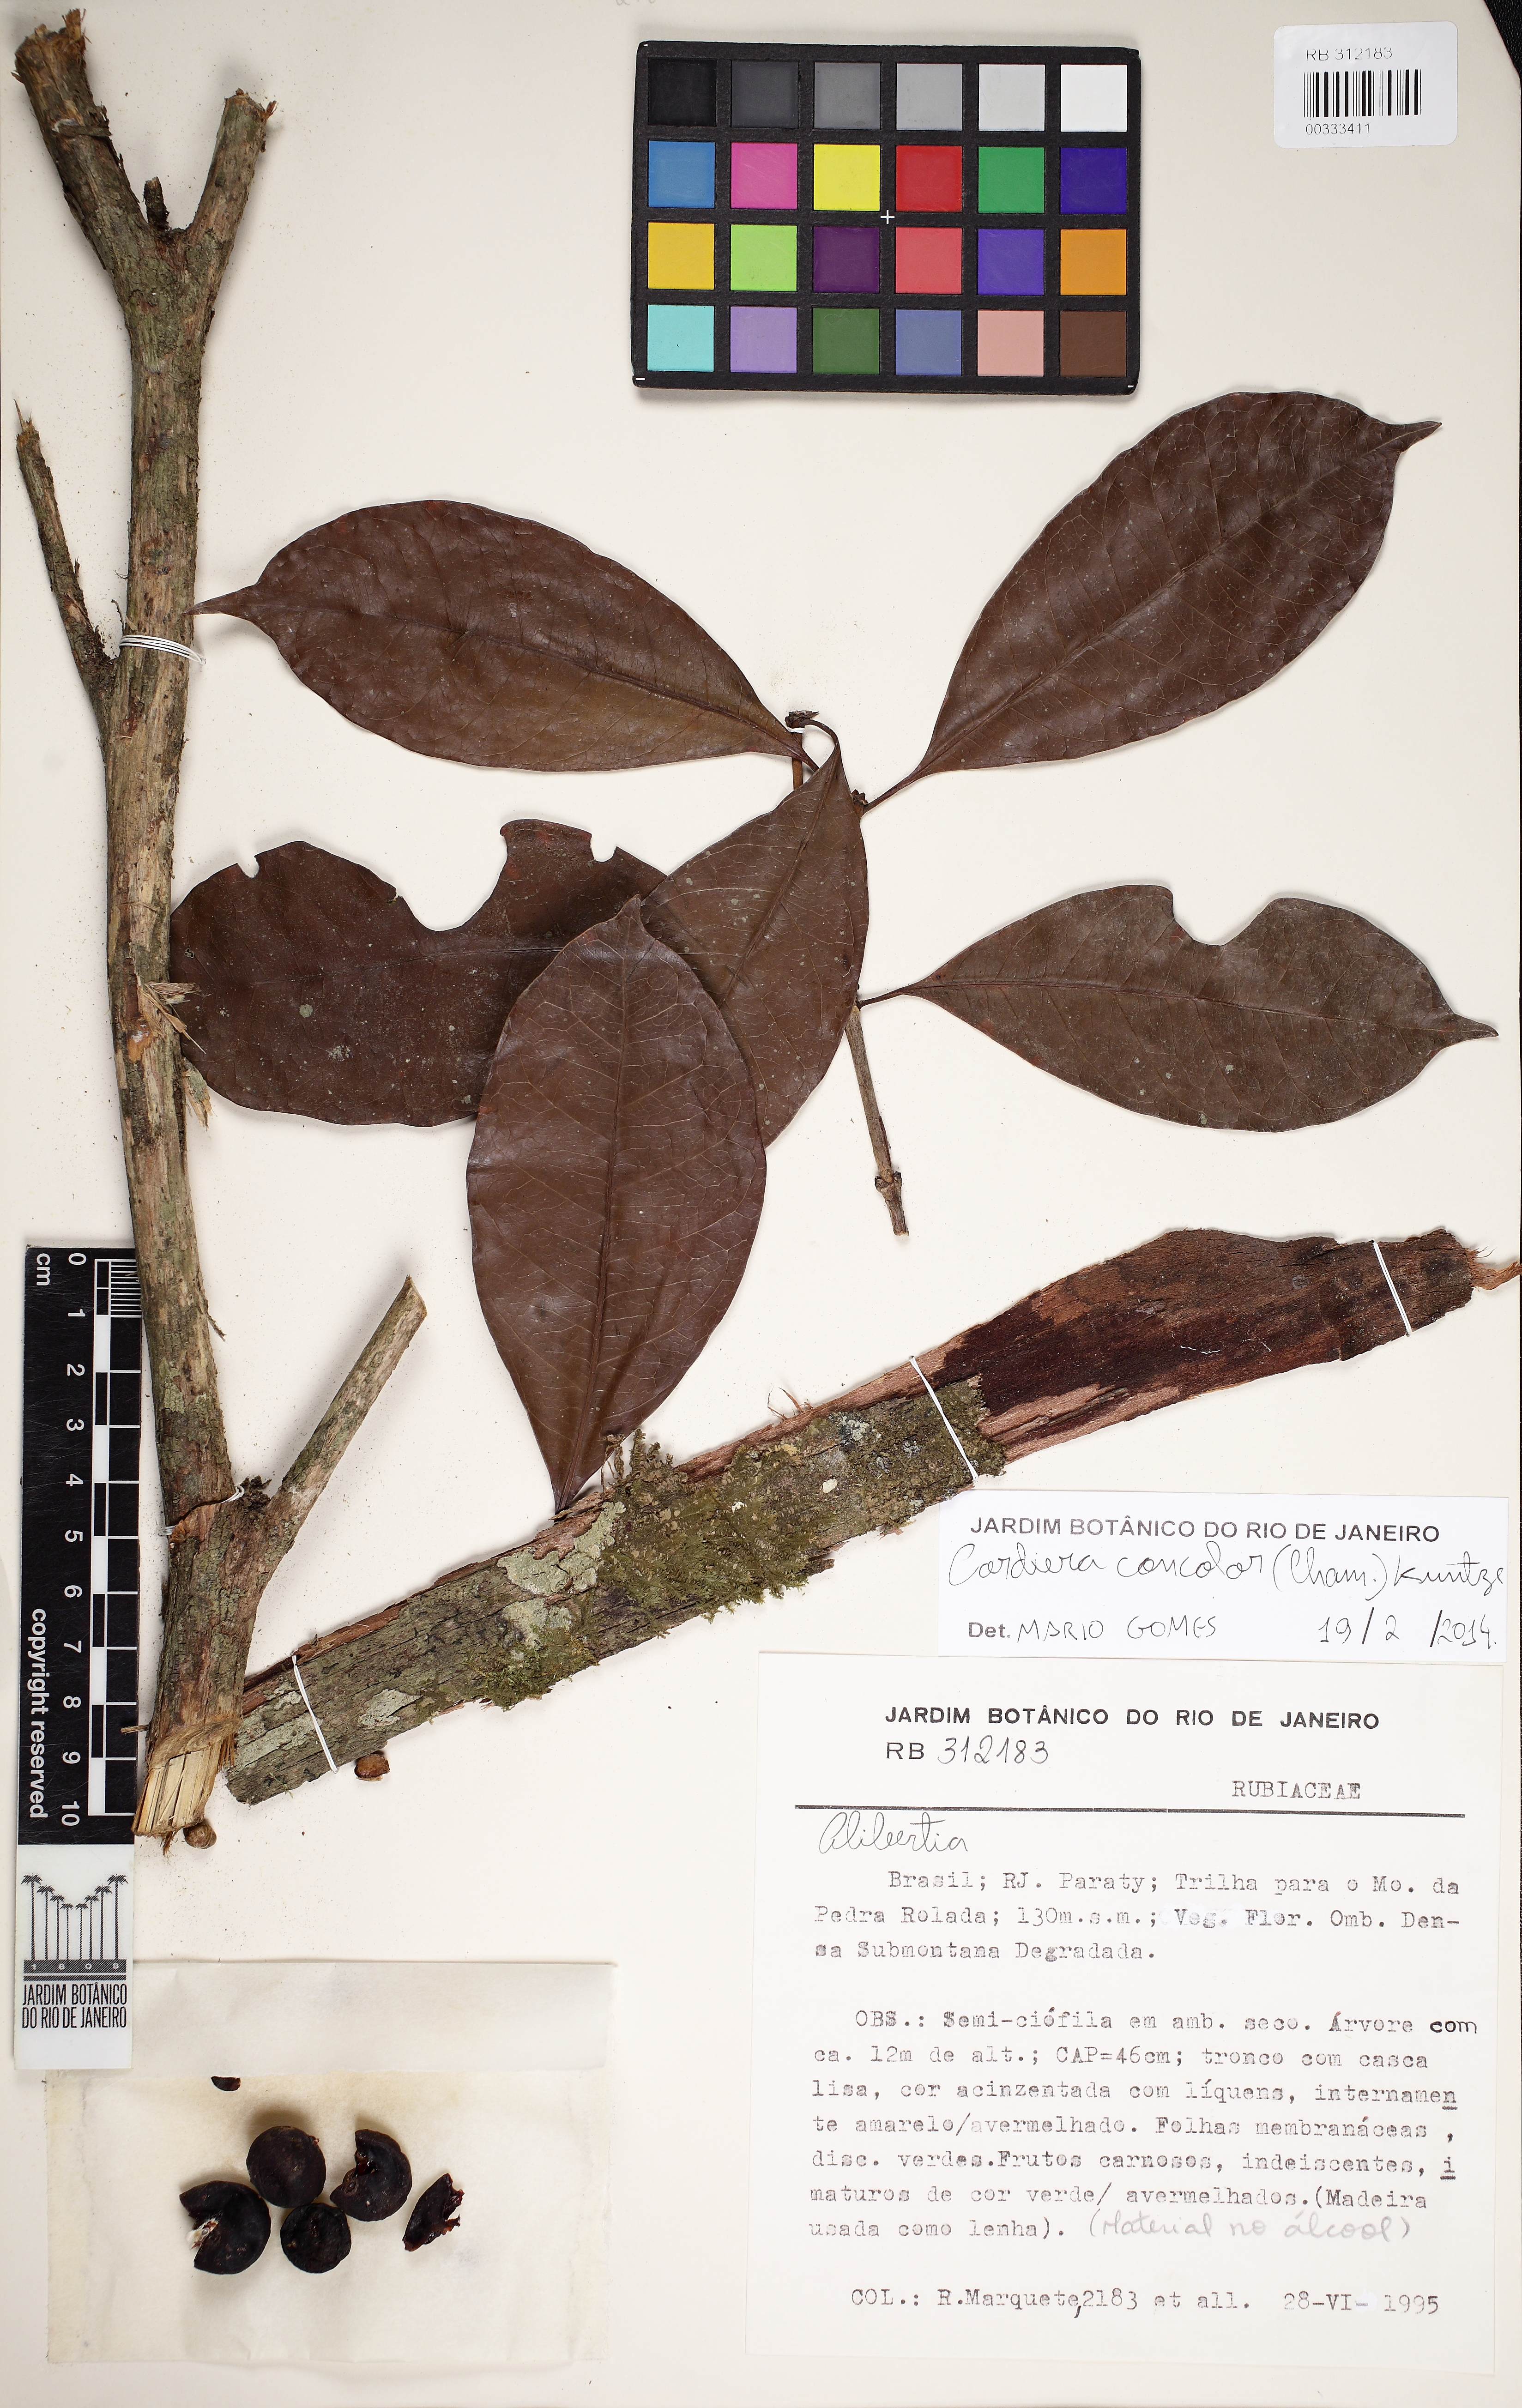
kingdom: Plantae
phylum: Tracheophyta
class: Magnoliopsida
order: Gentianales
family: Rubiaceae
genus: Cordiera
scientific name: Cordiera concolor
